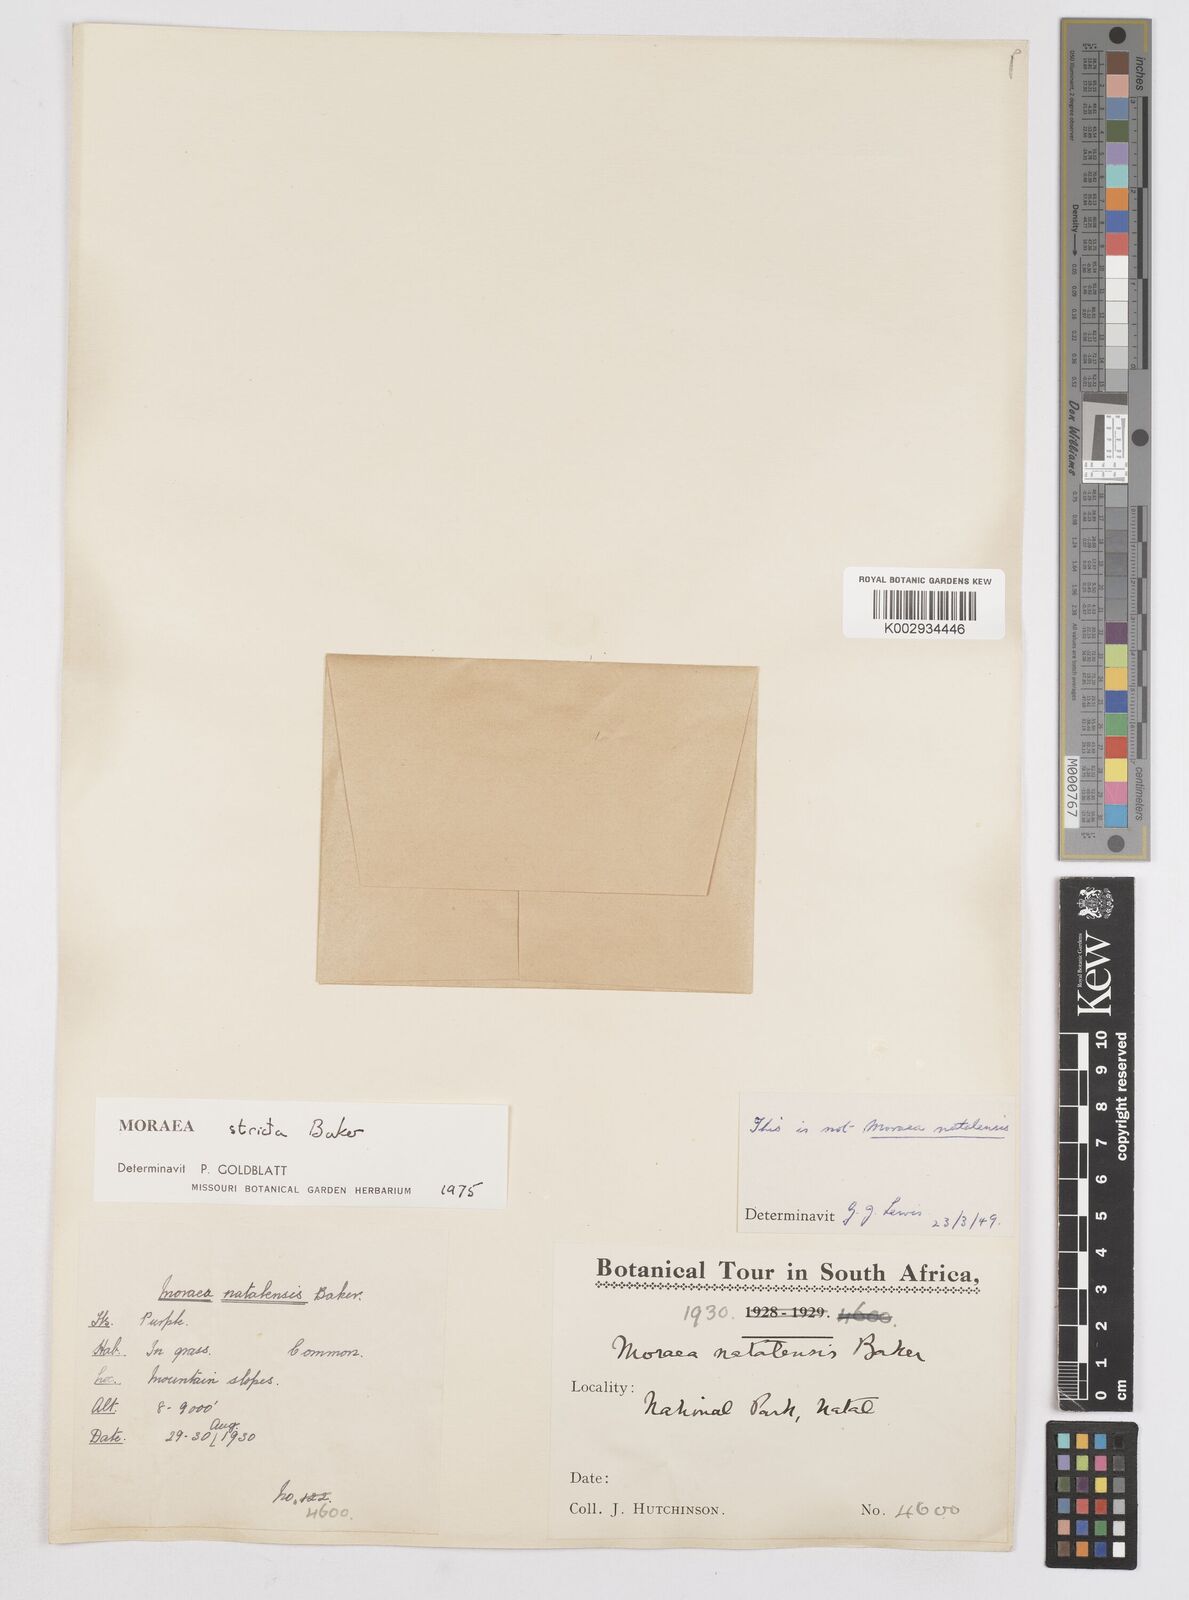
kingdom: Plantae
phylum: Tracheophyta
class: Liliopsida
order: Asparagales
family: Iridaceae
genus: Moraea
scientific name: Moraea stricta
